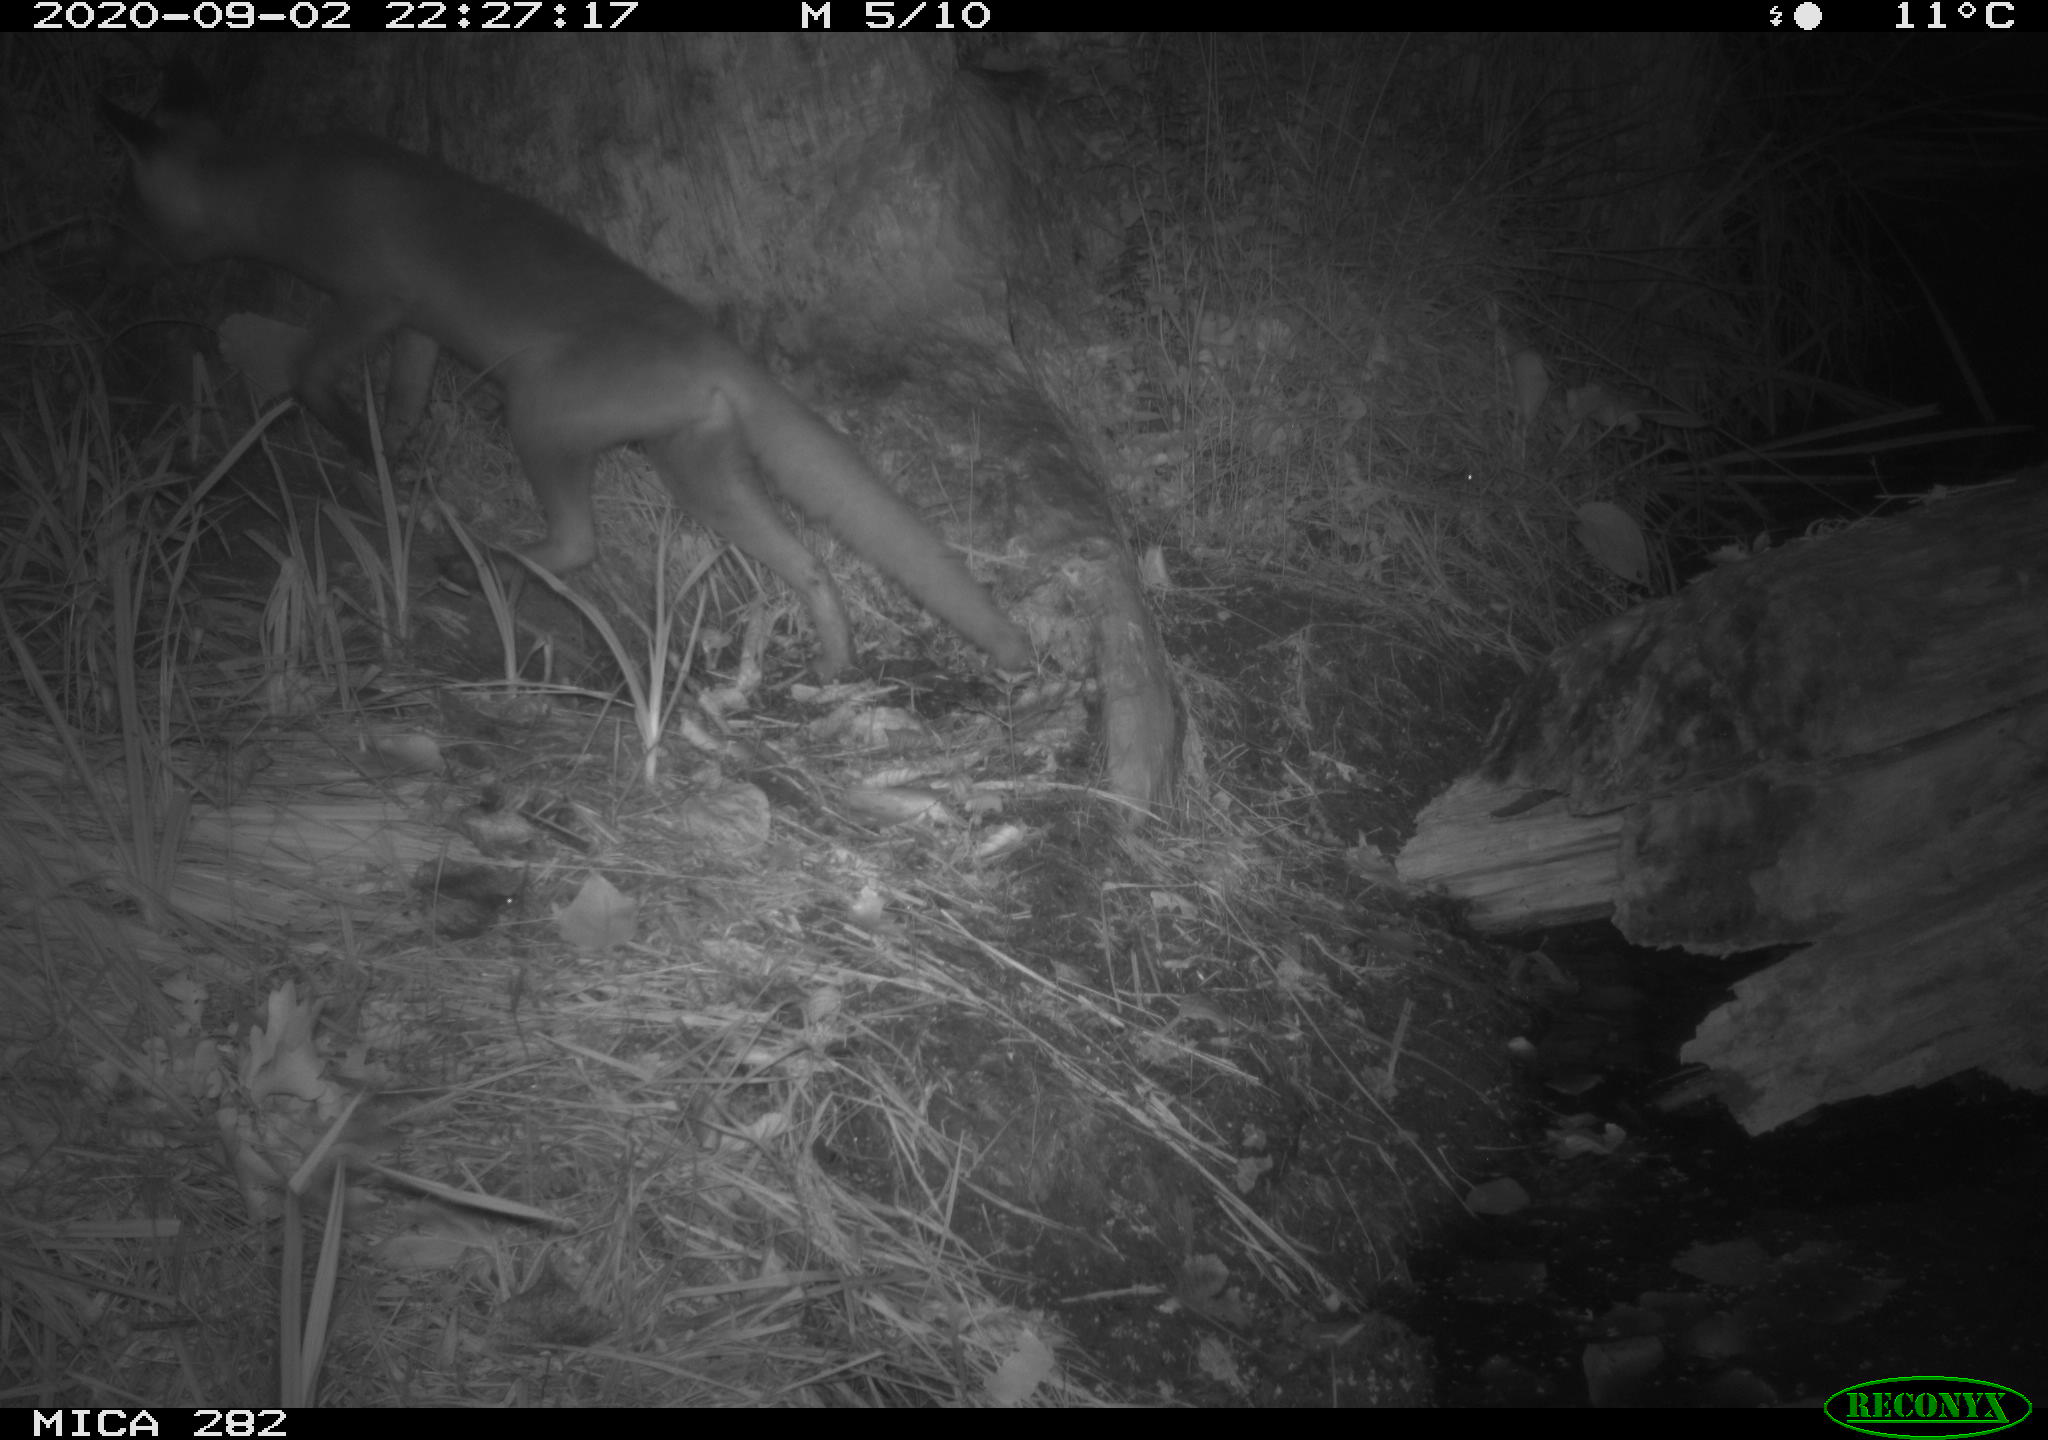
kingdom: Animalia
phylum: Chordata
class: Mammalia
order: Carnivora
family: Canidae
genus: Vulpes
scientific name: Vulpes vulpes
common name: Red fox
